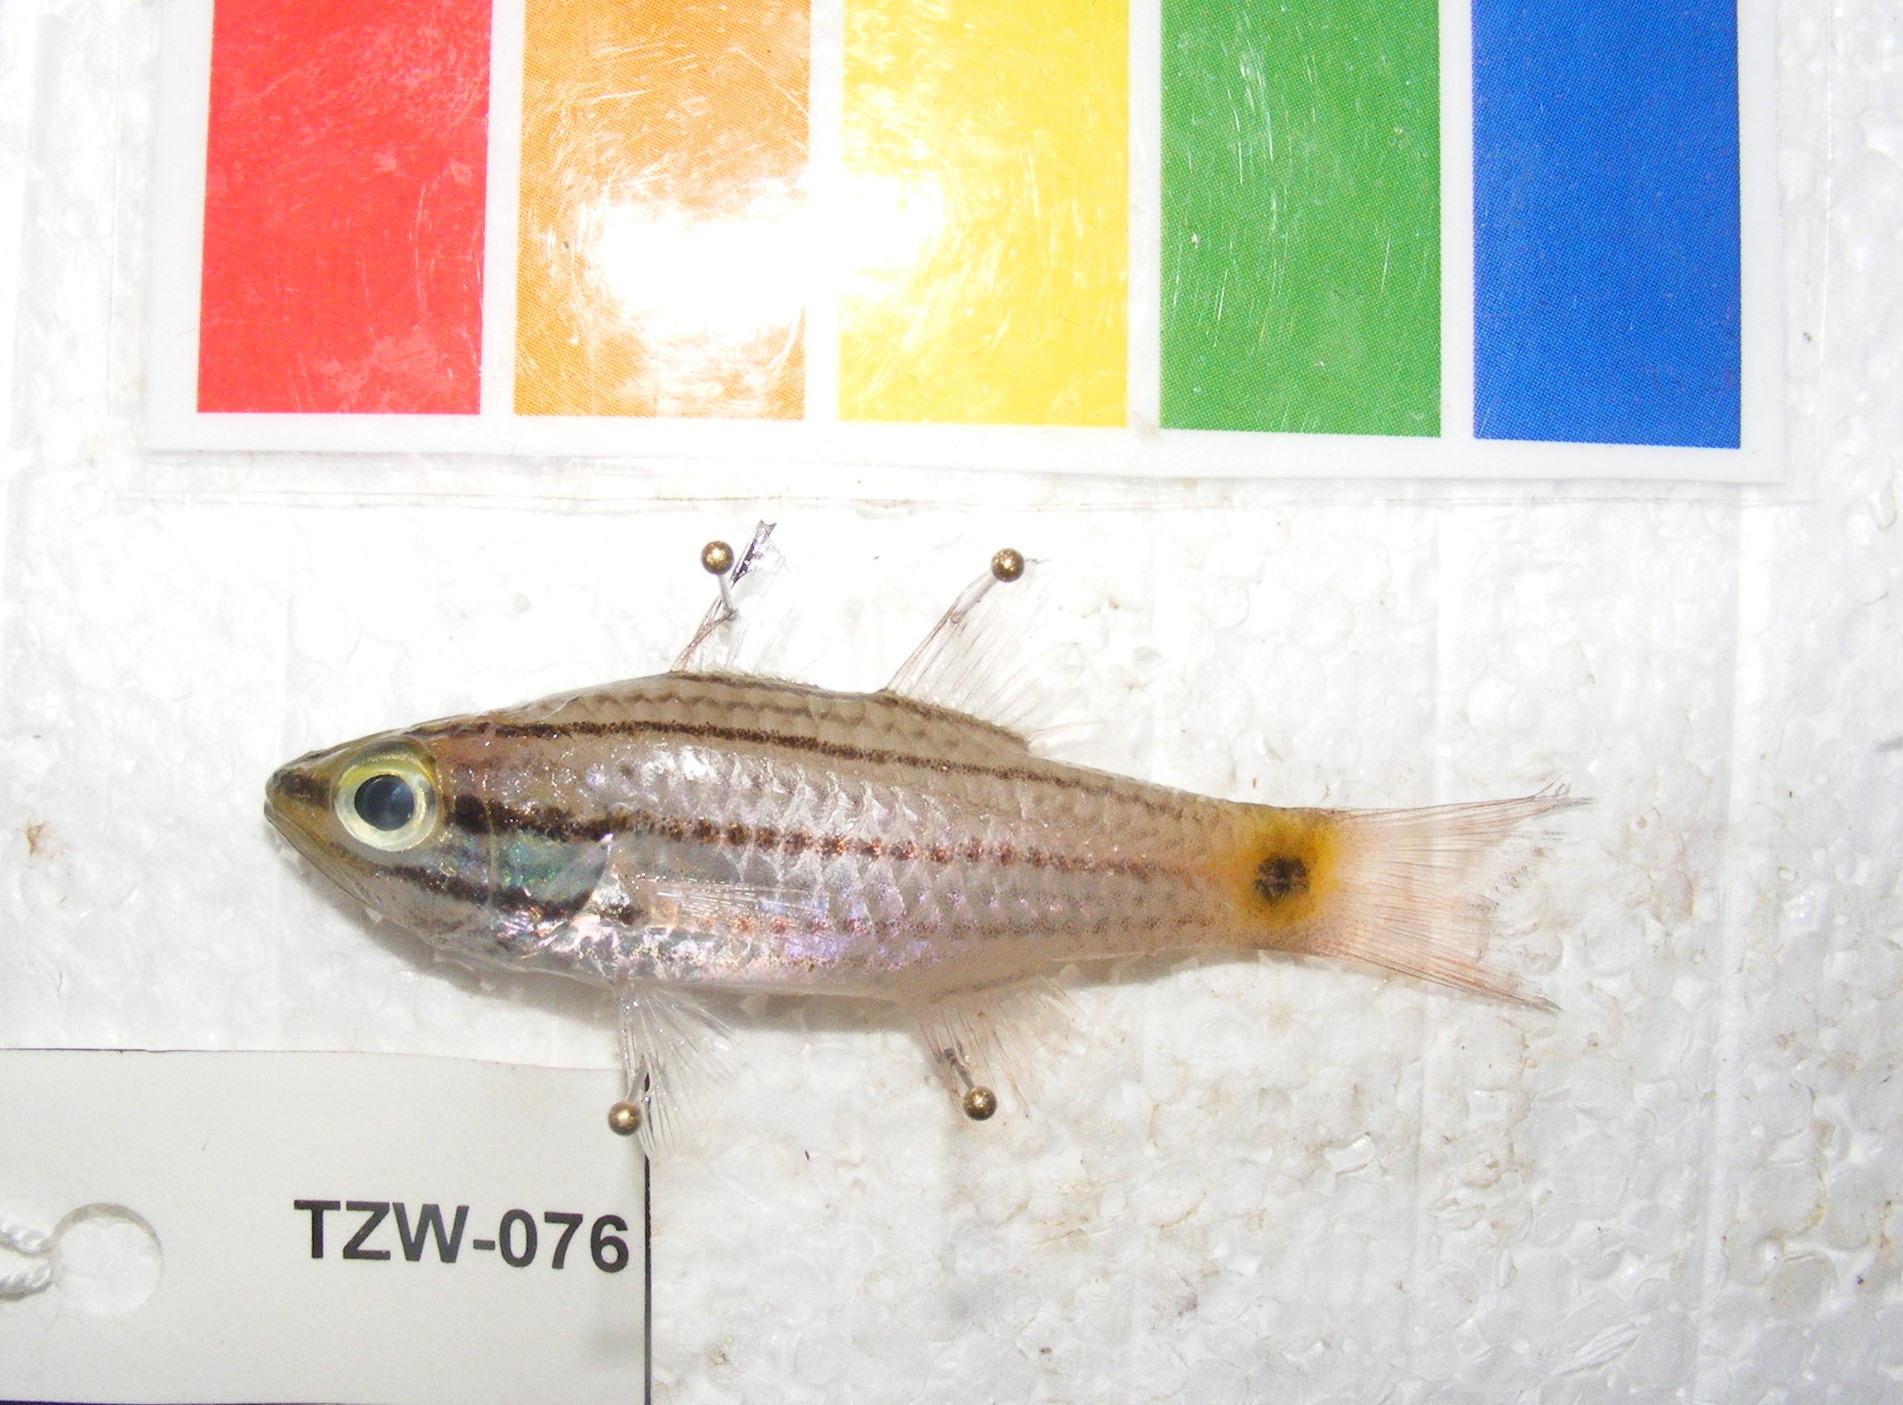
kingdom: Animalia
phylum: Chordata
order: Perciformes
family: Apogonidae
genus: Cheilodipterus
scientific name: Cheilodipterus macrodon
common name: Eight-lined cardinalfish
